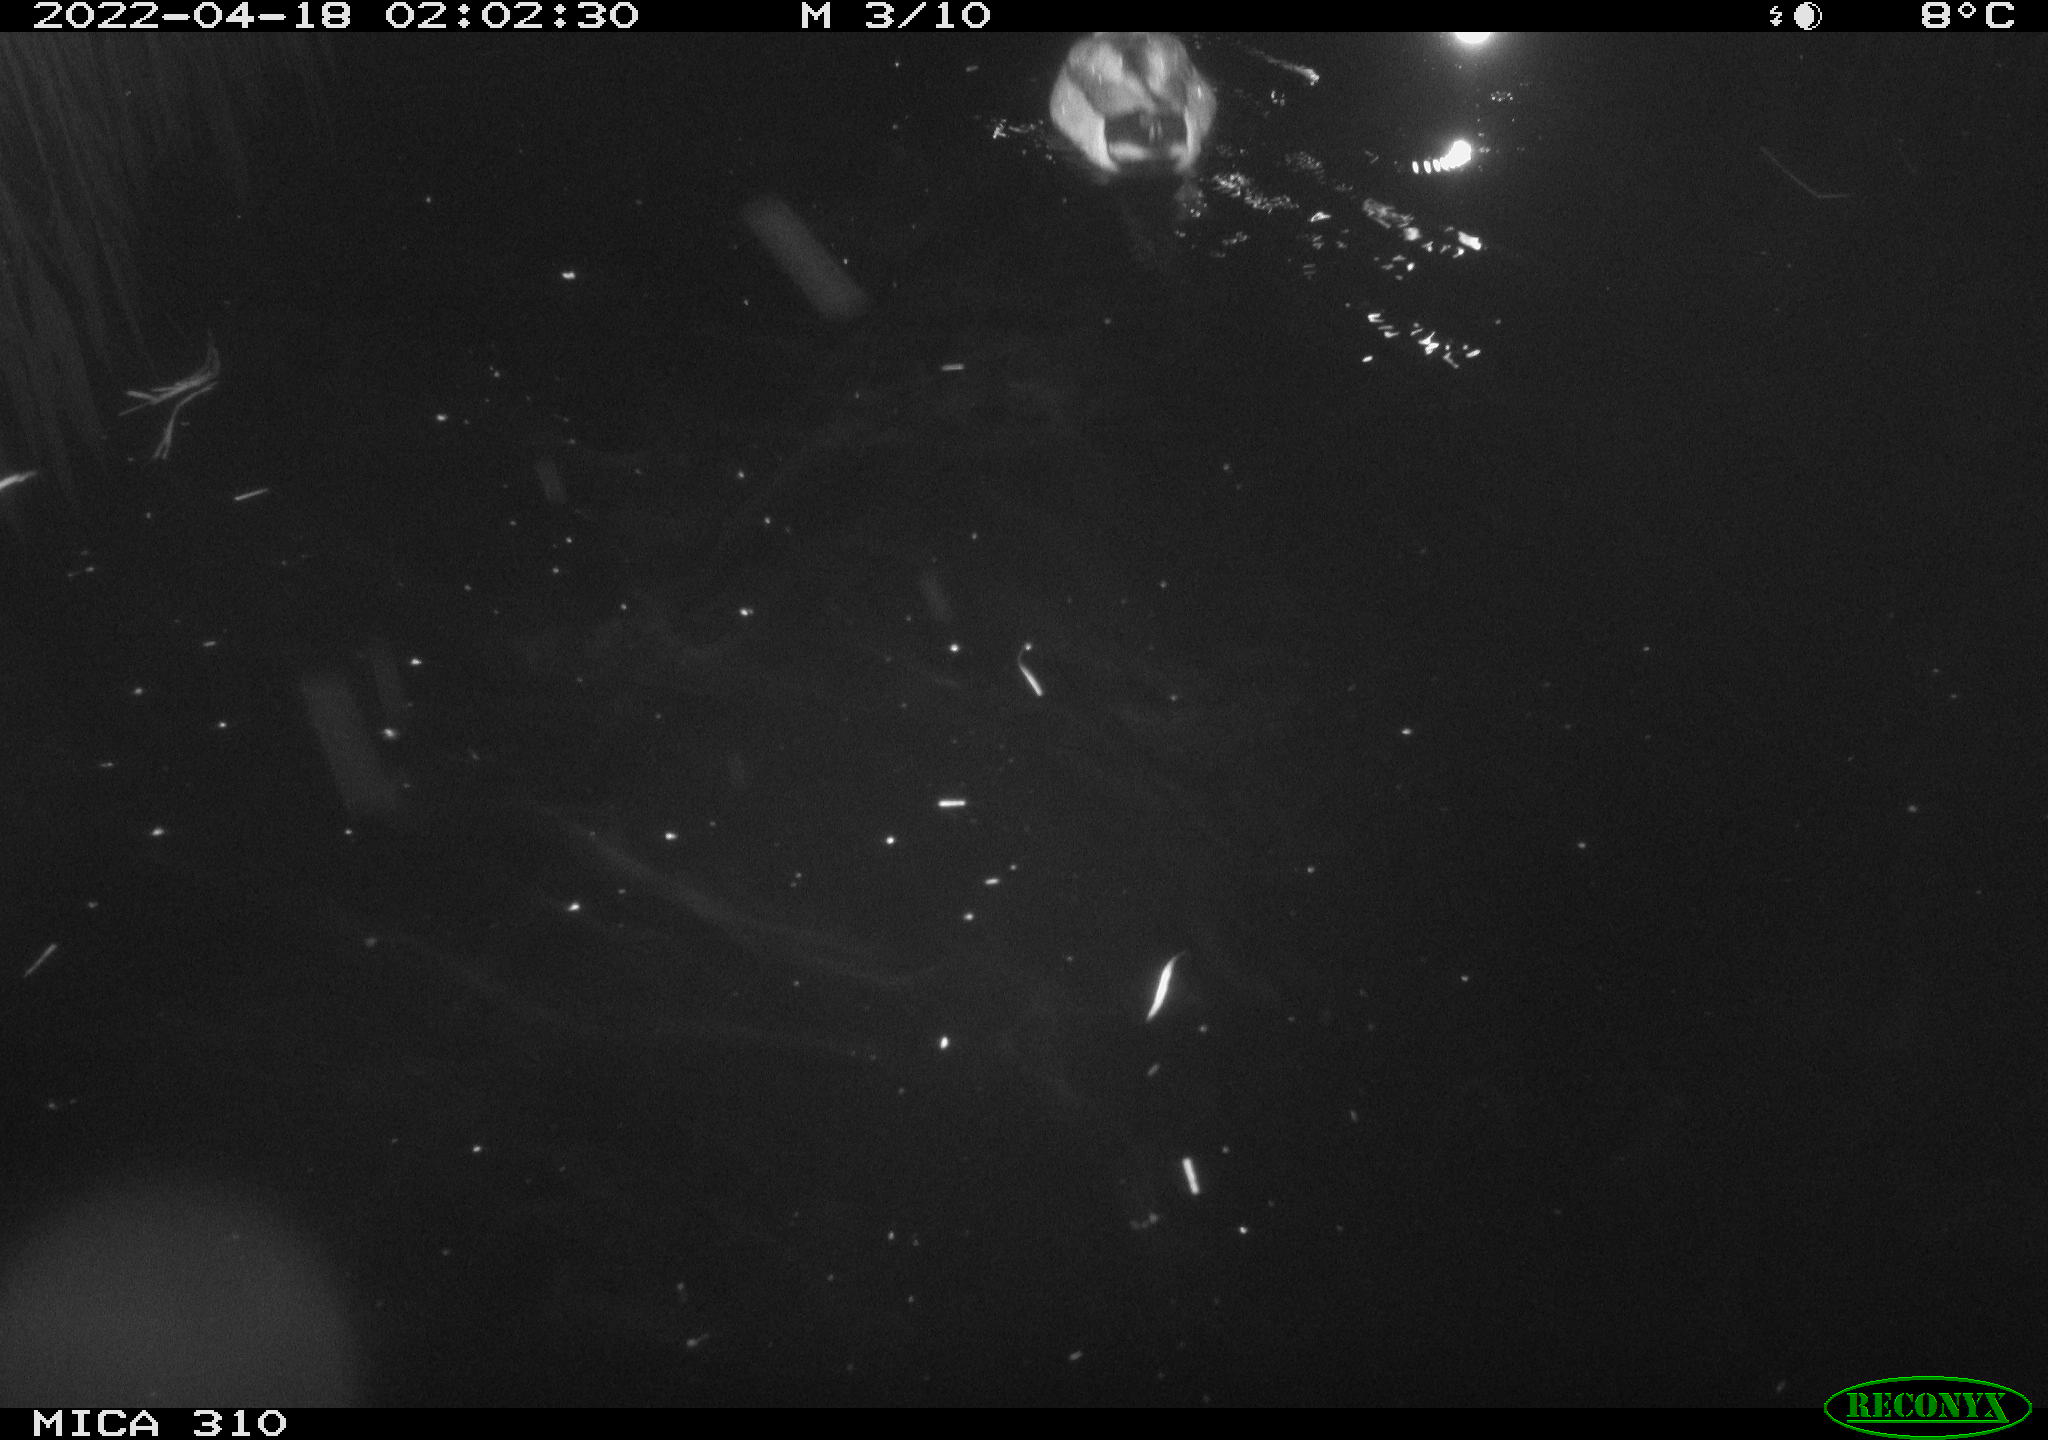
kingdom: Animalia
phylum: Chordata
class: Aves
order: Anseriformes
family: Anatidae
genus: Anas
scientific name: Anas platyrhynchos
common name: Mallard
